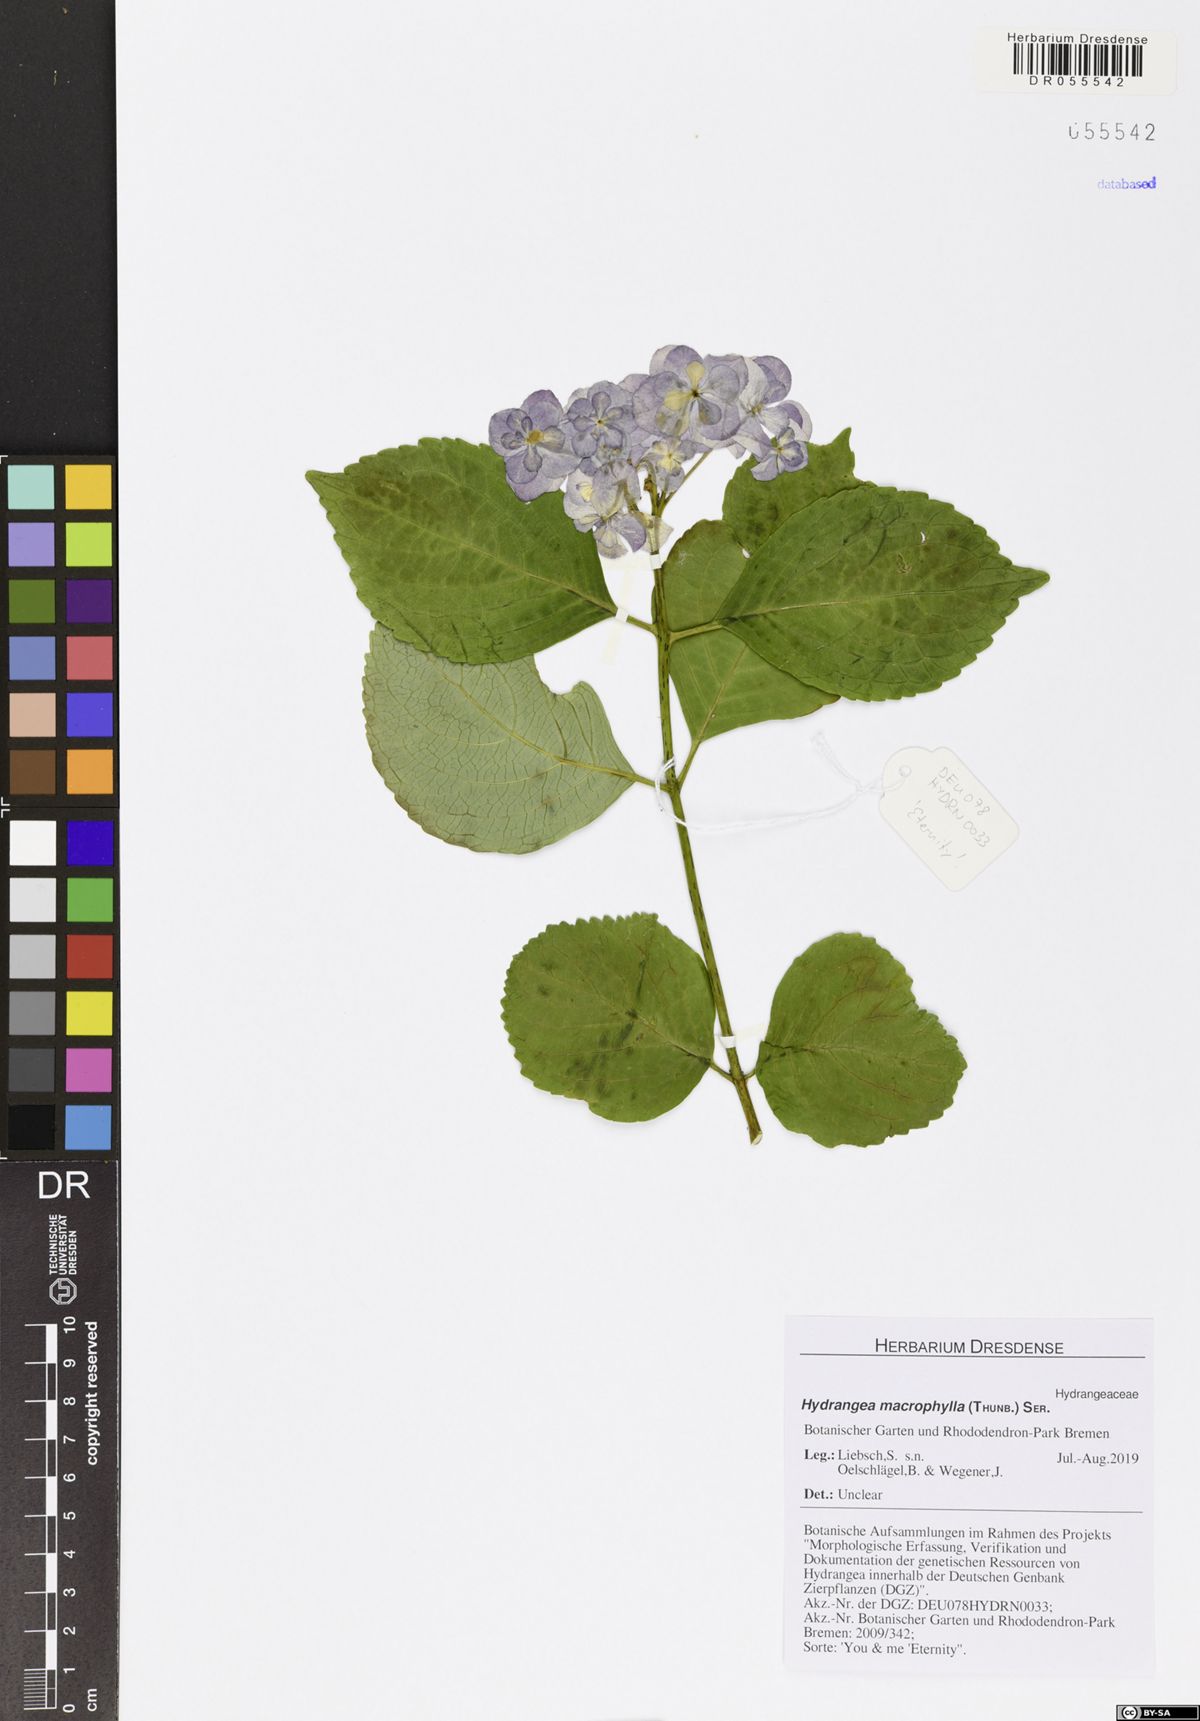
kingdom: Plantae
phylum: Tracheophyta
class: Magnoliopsida
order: Cornales
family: Hydrangeaceae
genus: Hydrangea
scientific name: Hydrangea macrophylla
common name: Hydrangea
